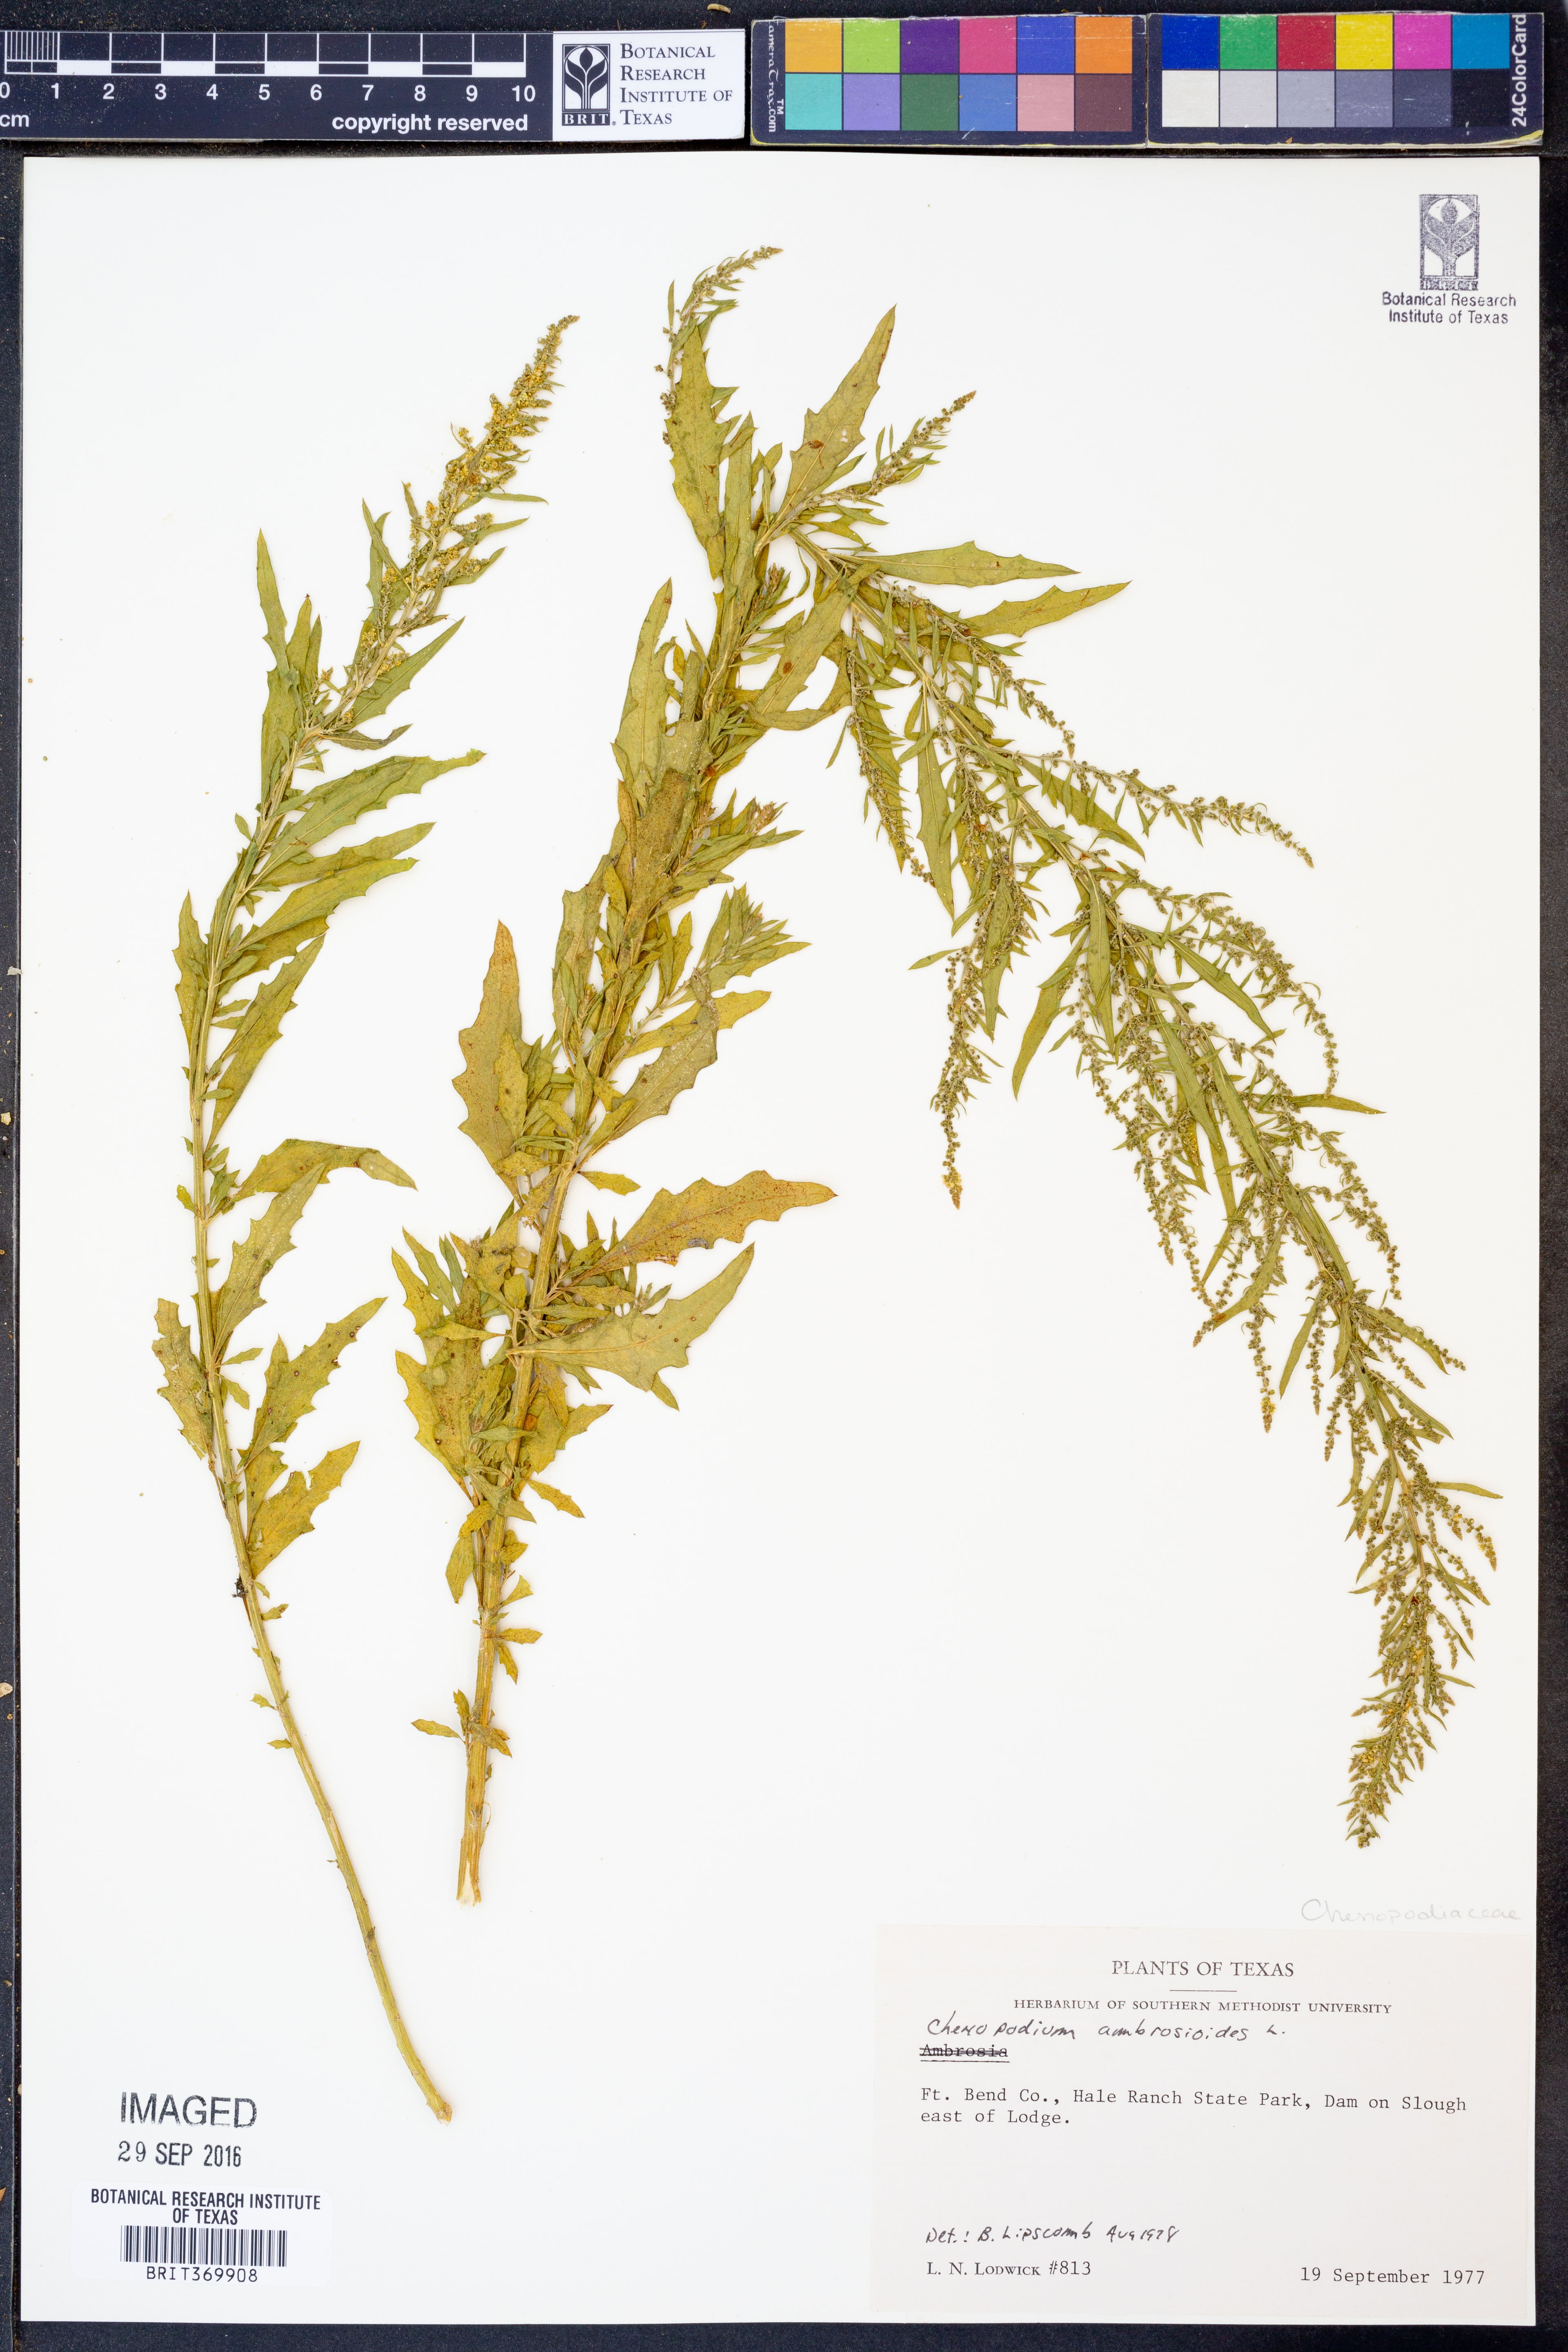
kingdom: Plantae
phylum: Tracheophyta
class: Magnoliopsida
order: Caryophyllales
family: Amaranthaceae
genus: Dysphania
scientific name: Dysphania ambrosioides
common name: Wormseed
